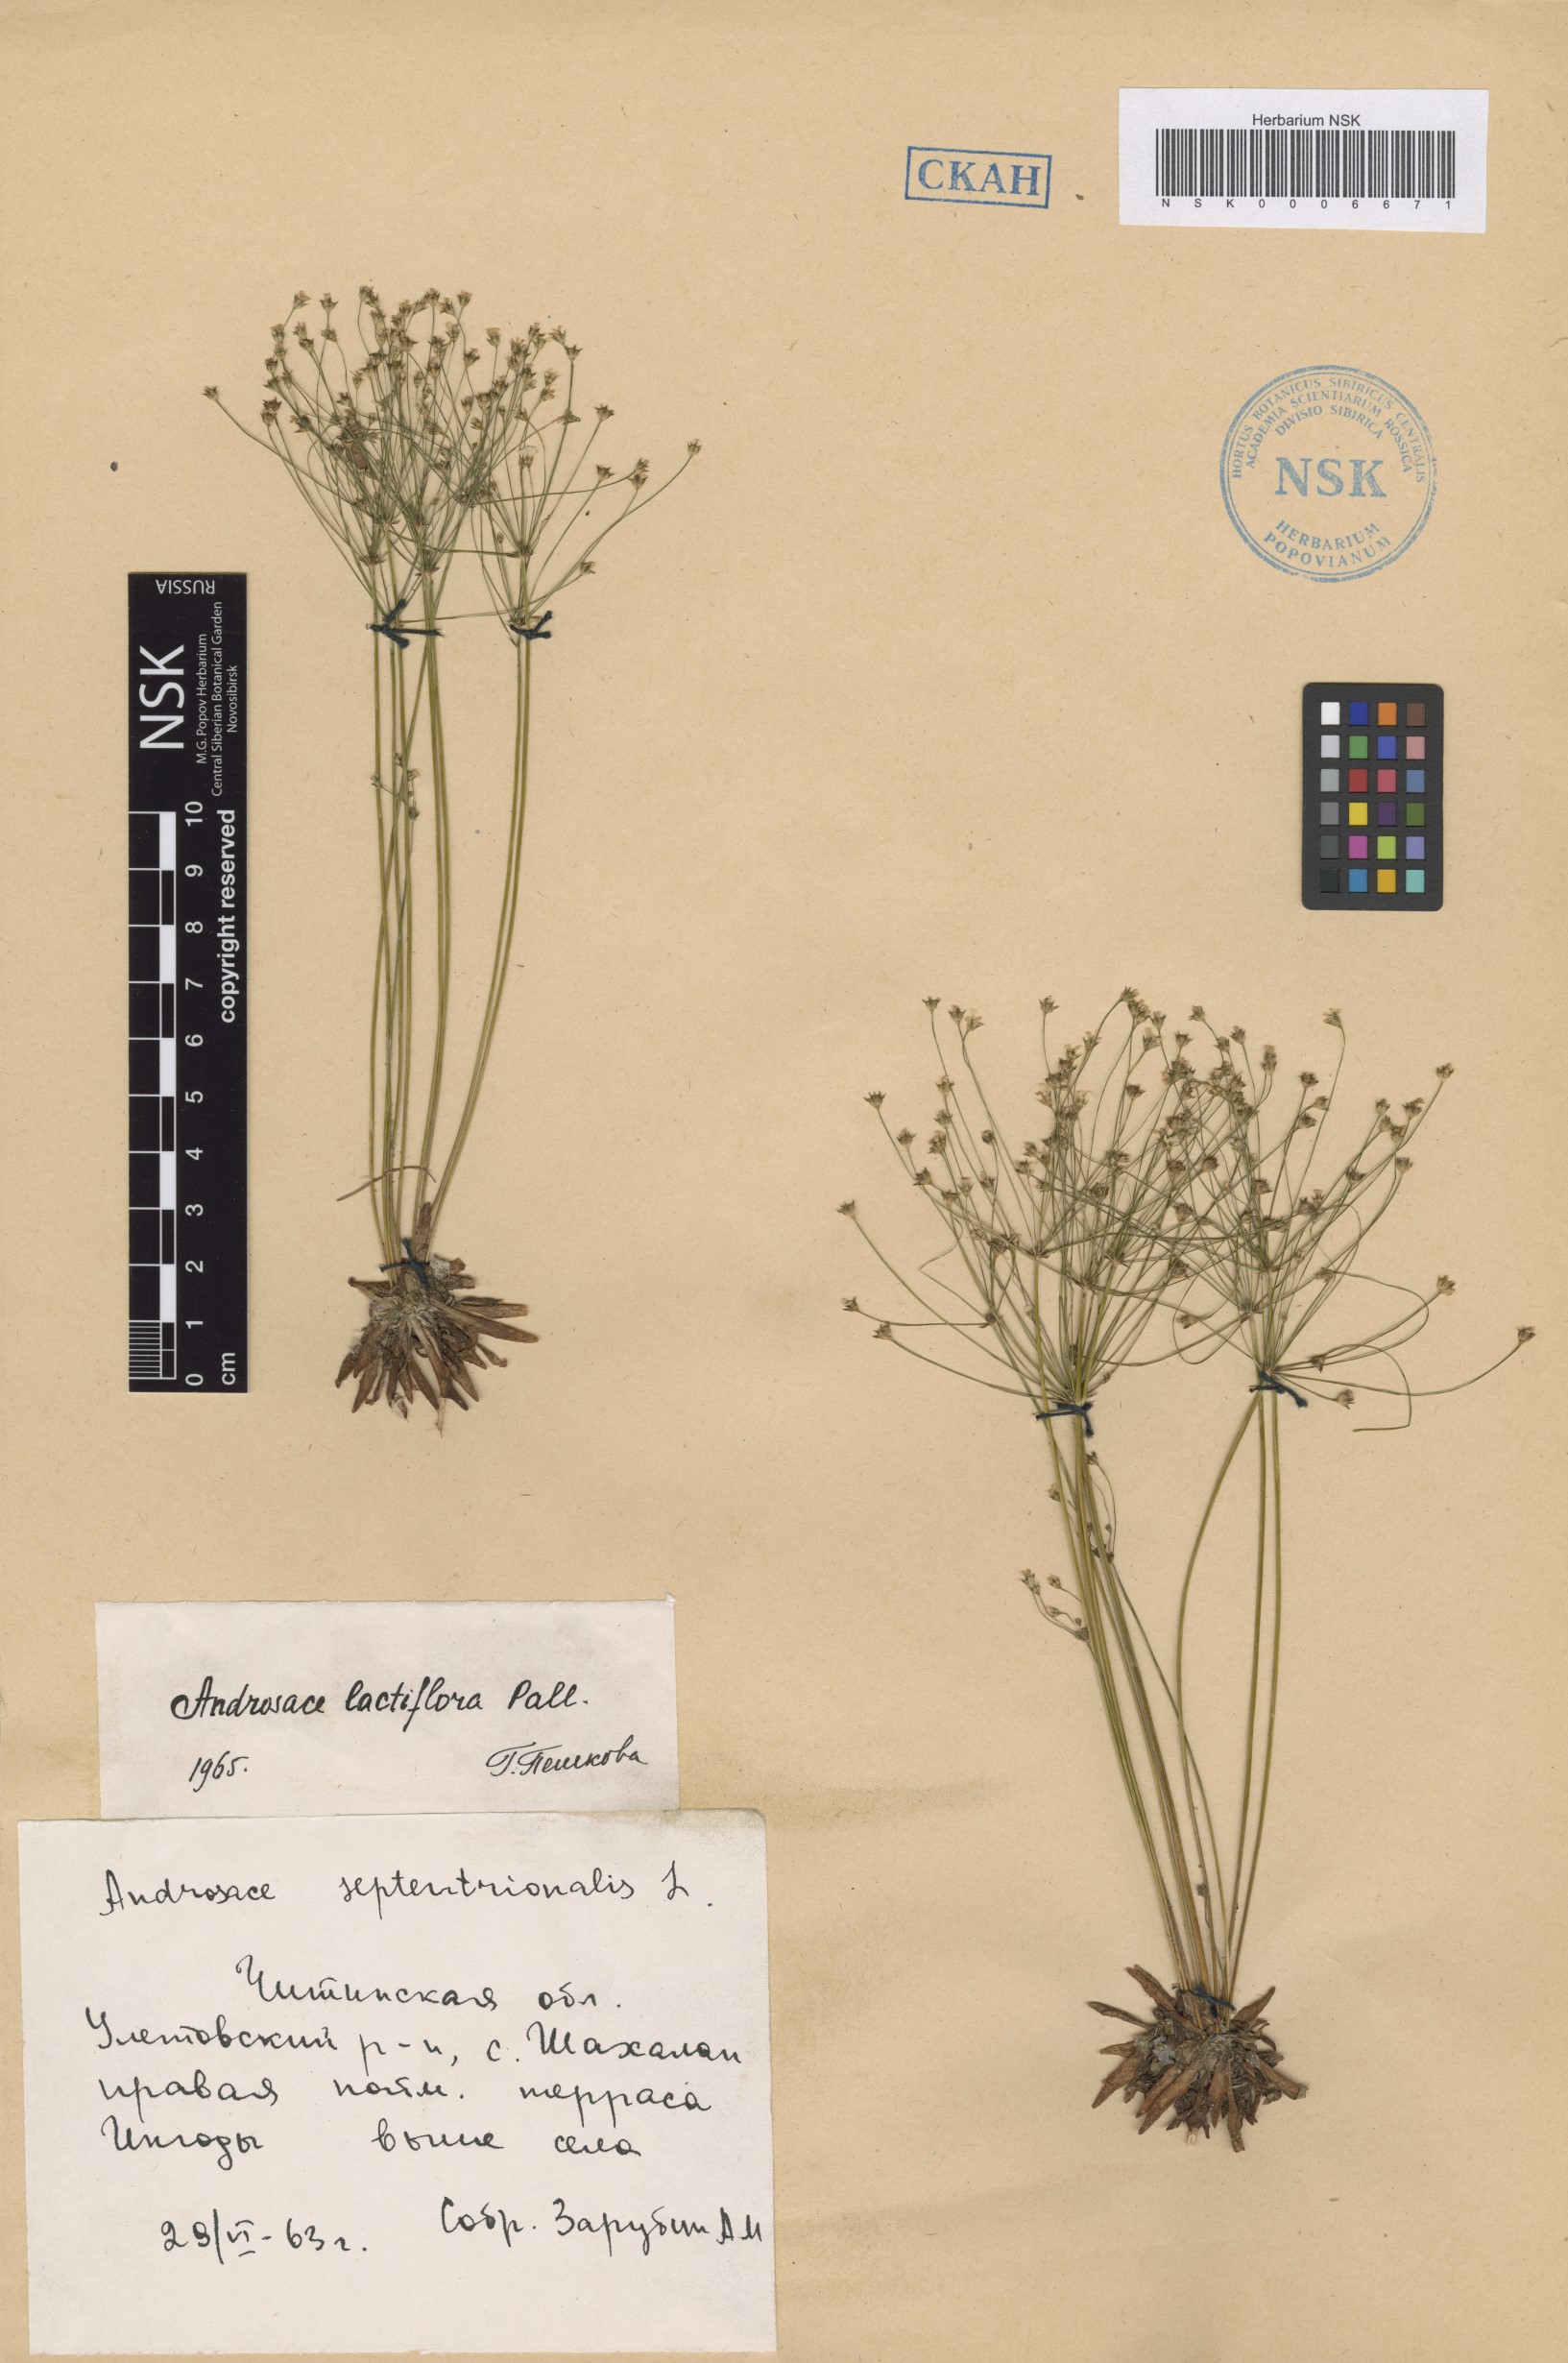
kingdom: Plantae
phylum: Tracheophyta
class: Magnoliopsida
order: Ericales
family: Primulaceae
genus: Androsace
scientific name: Androsace lactiflora
